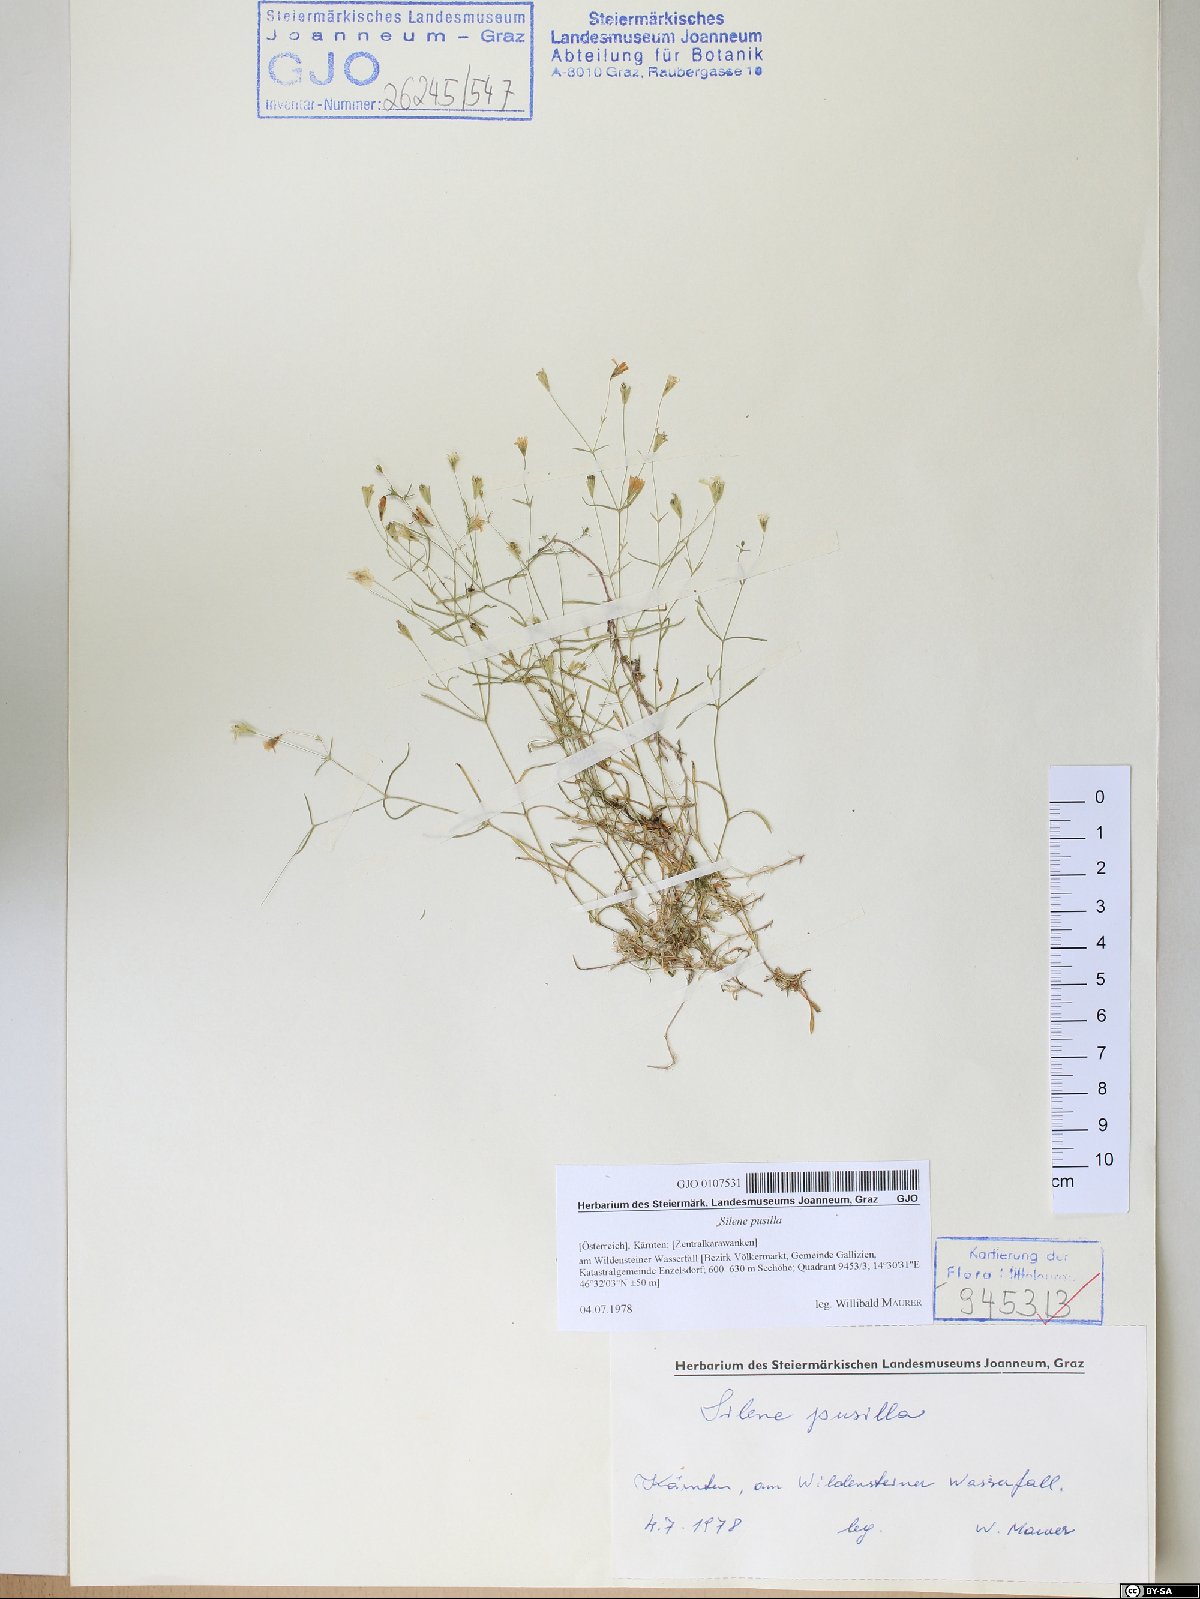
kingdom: Plantae
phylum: Tracheophyta
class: Magnoliopsida
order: Caryophyllales
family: Caryophyllaceae
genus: Heliosperma
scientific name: Heliosperma pusillum
